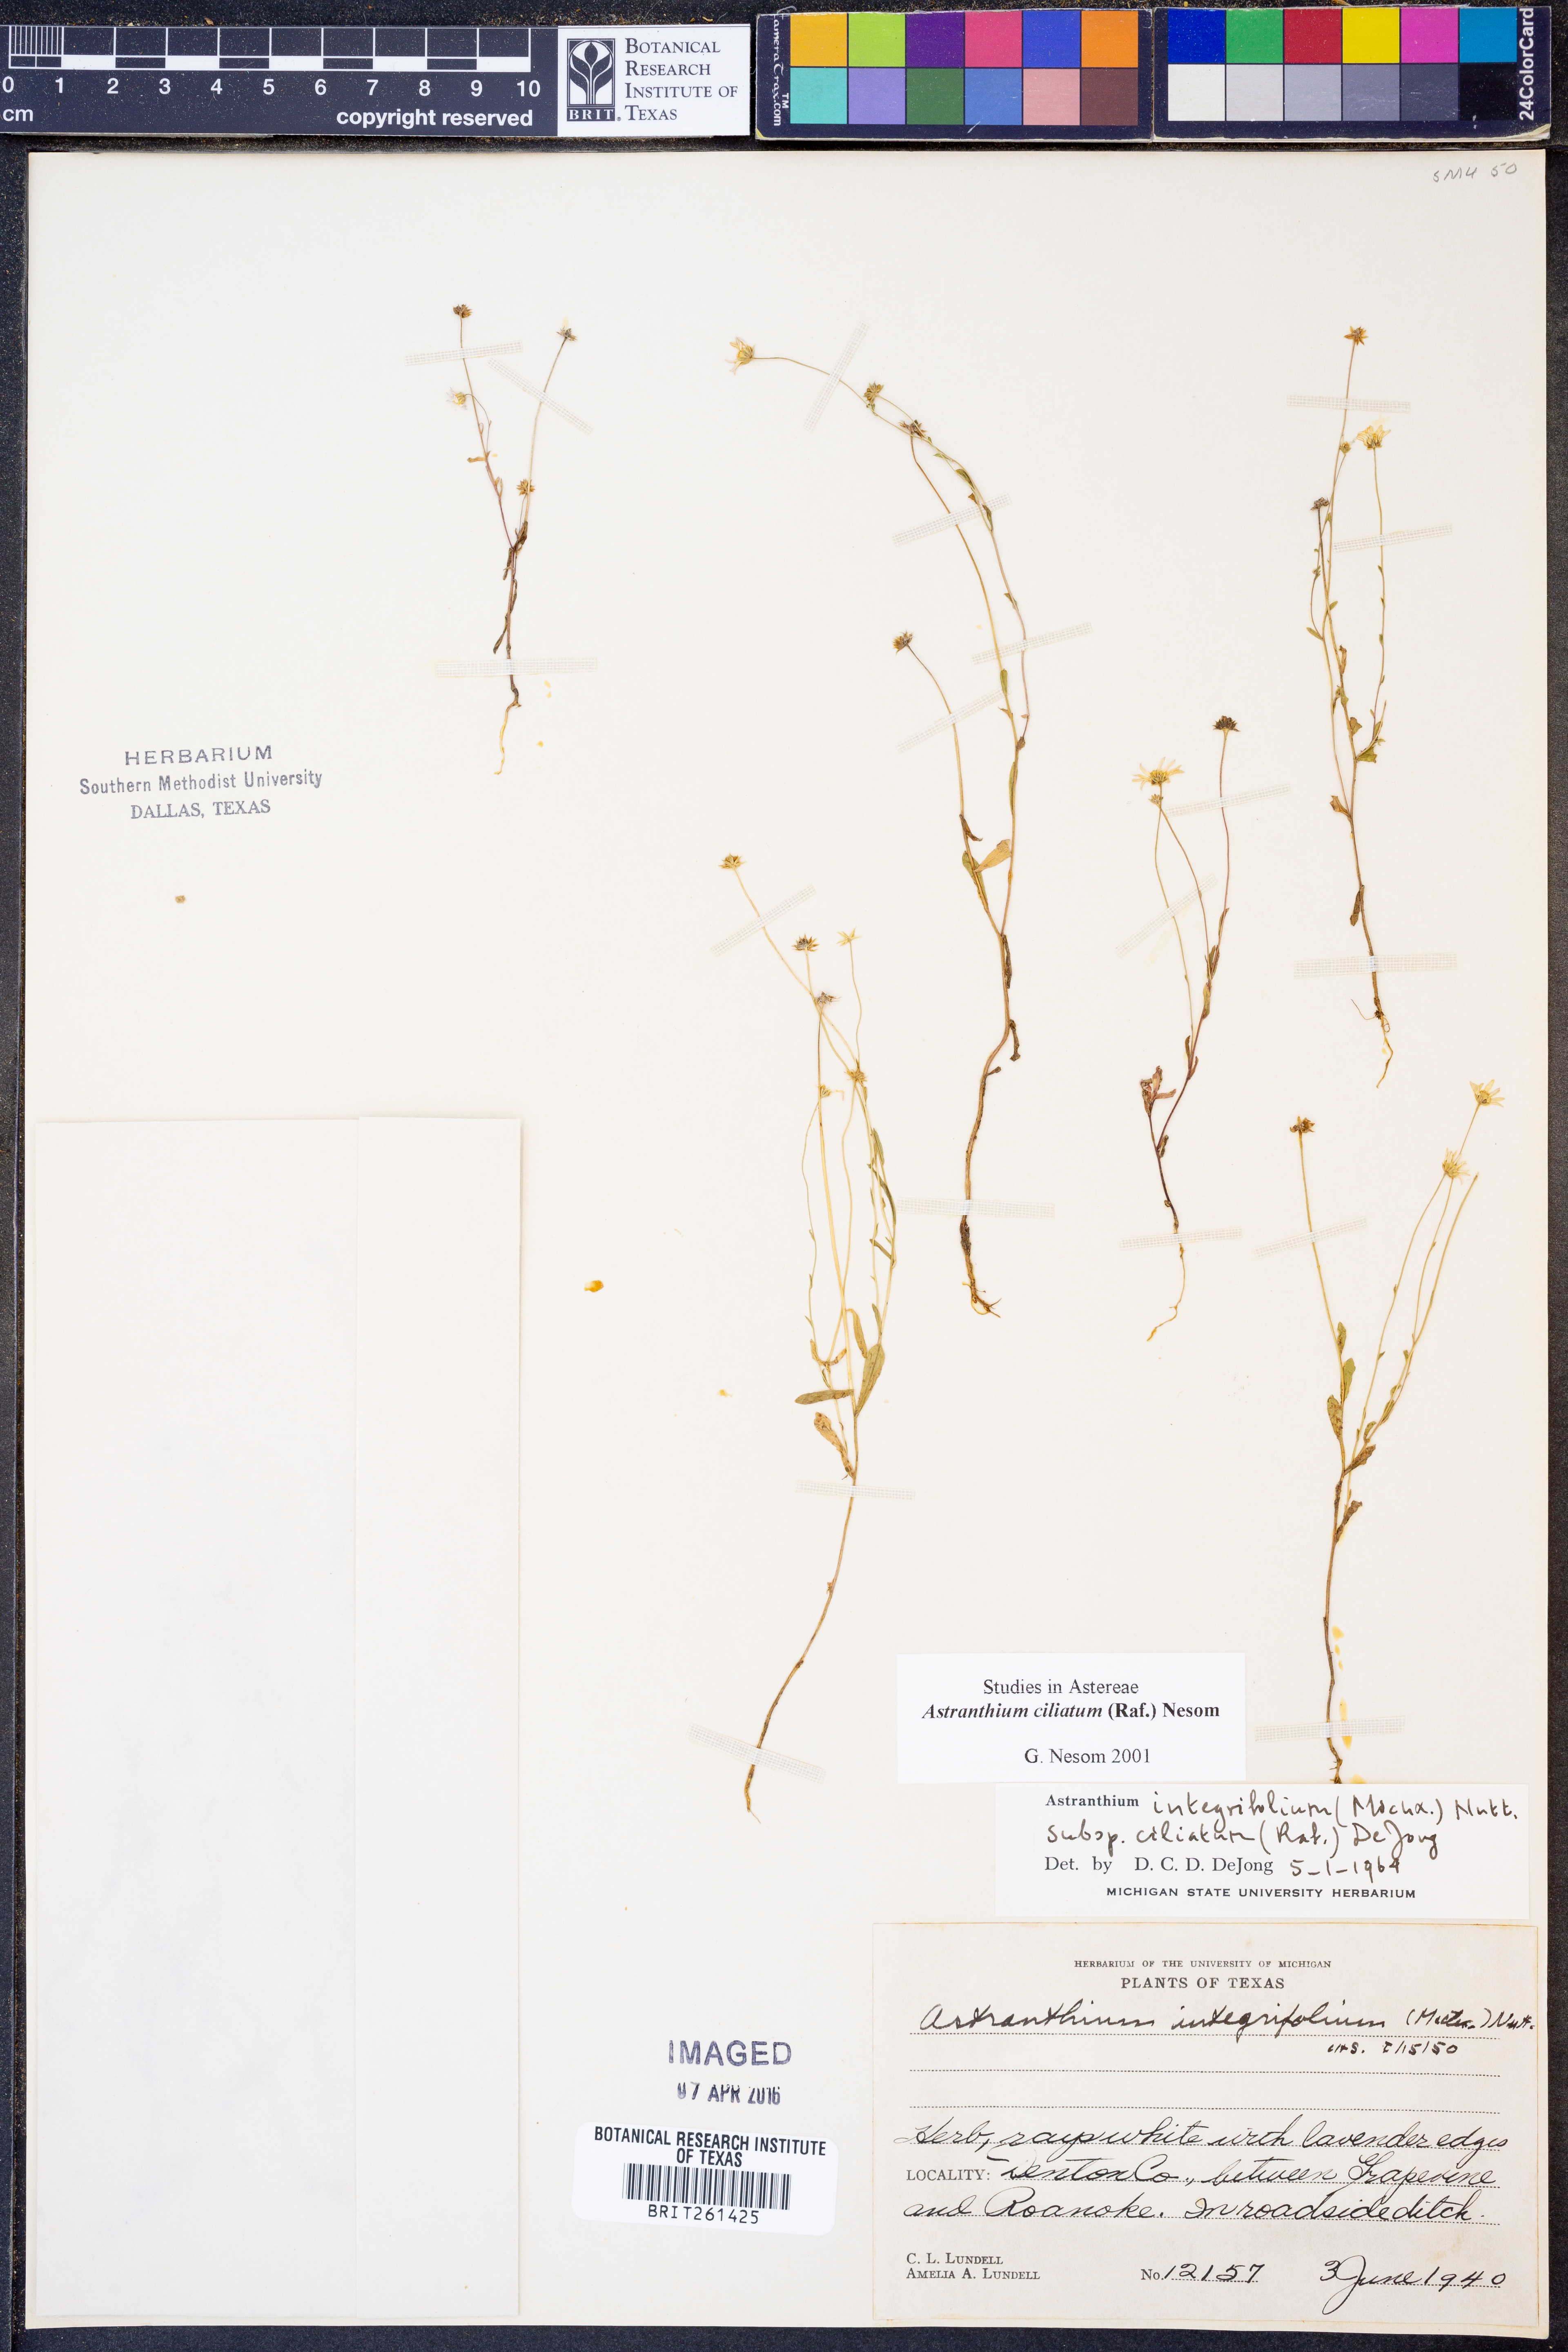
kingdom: Plantae
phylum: Tracheophyta
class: Magnoliopsida
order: Asterales
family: Asteraceae
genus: Astranthium
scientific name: Astranthium ciliatum
